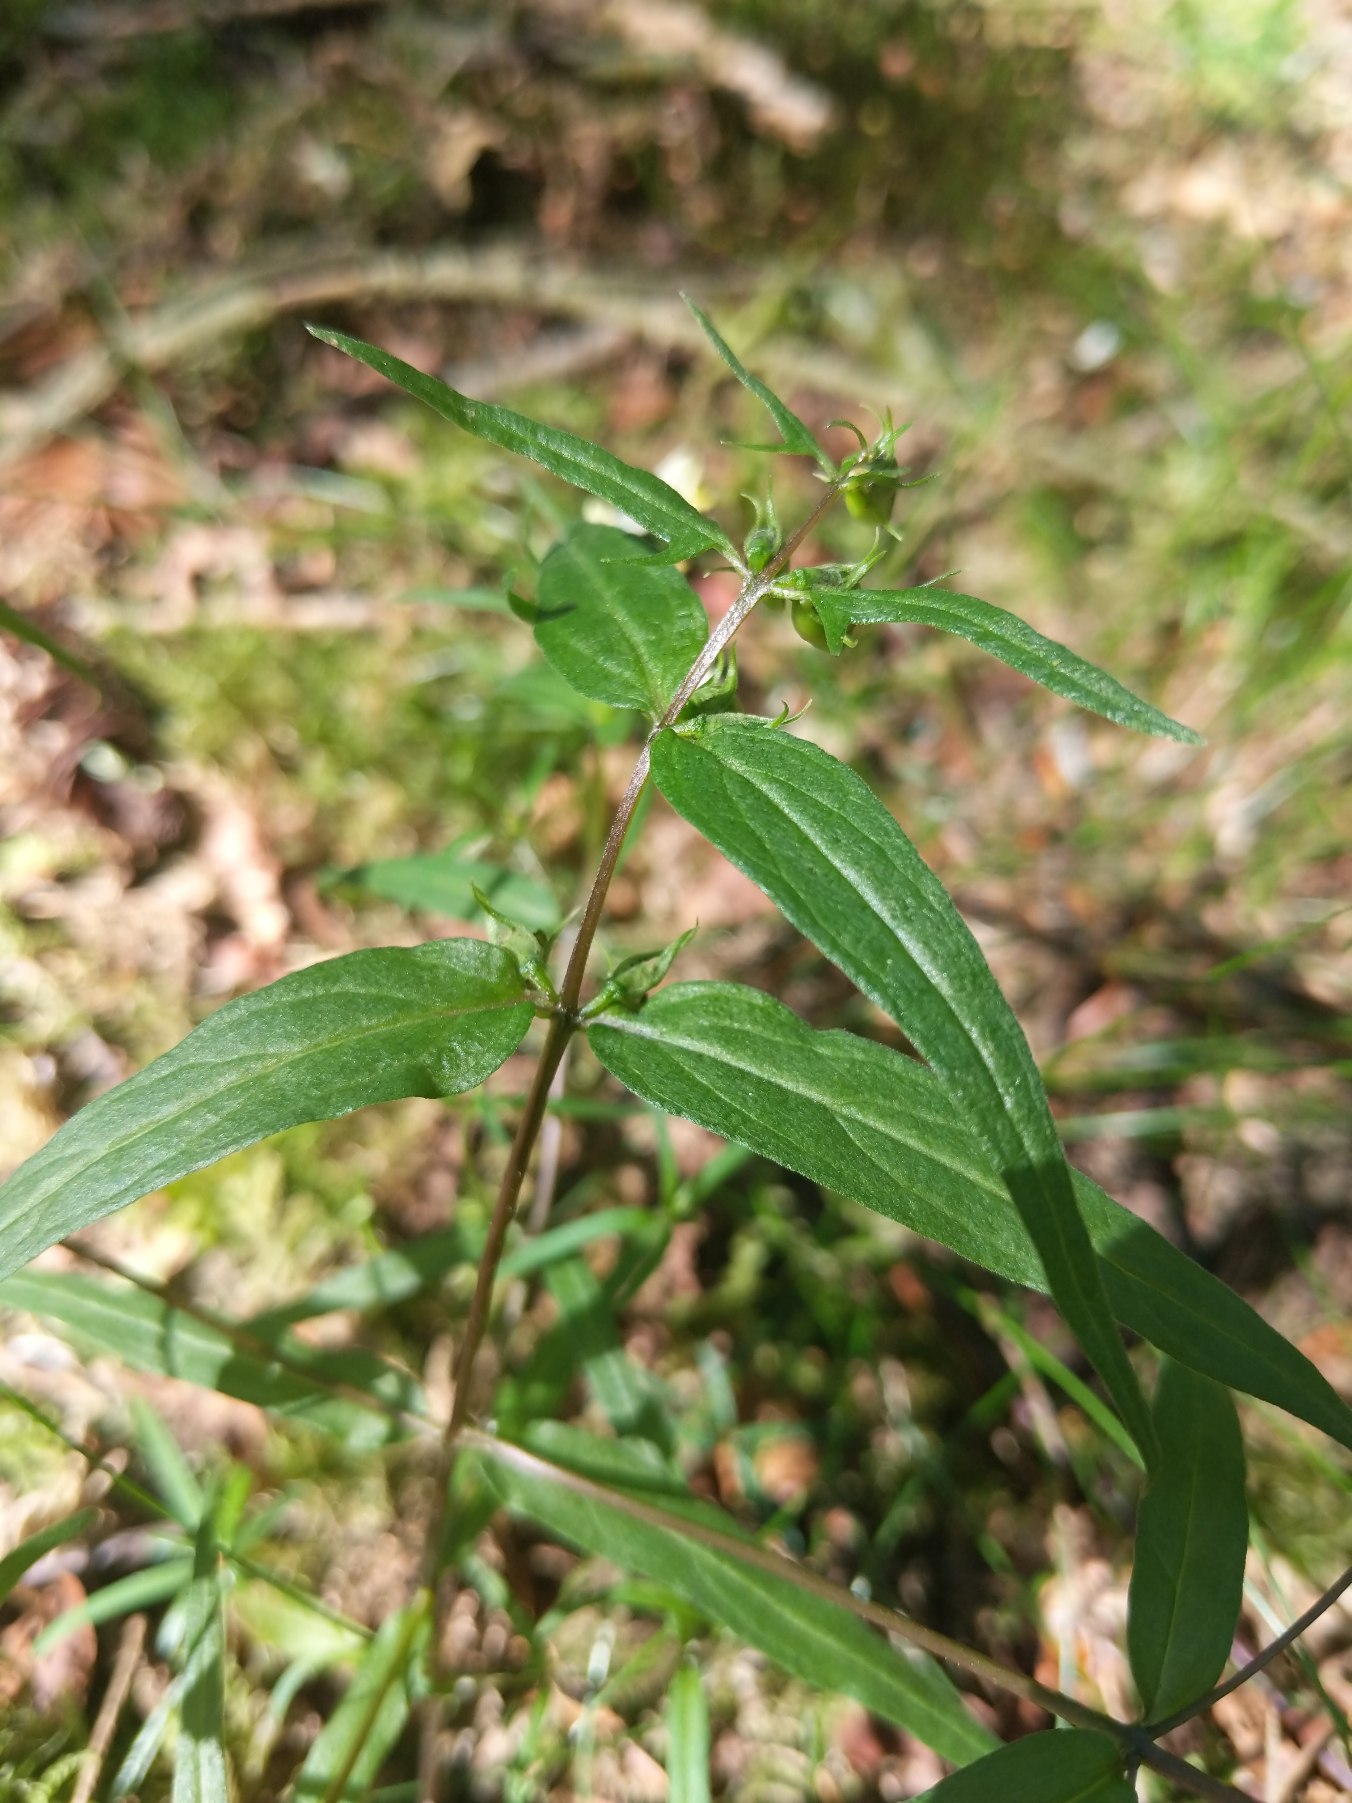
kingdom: Plantae
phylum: Tracheophyta
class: Magnoliopsida
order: Lamiales
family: Orobanchaceae
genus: Melampyrum
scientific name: Melampyrum pratense
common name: Almindelig kohvede
